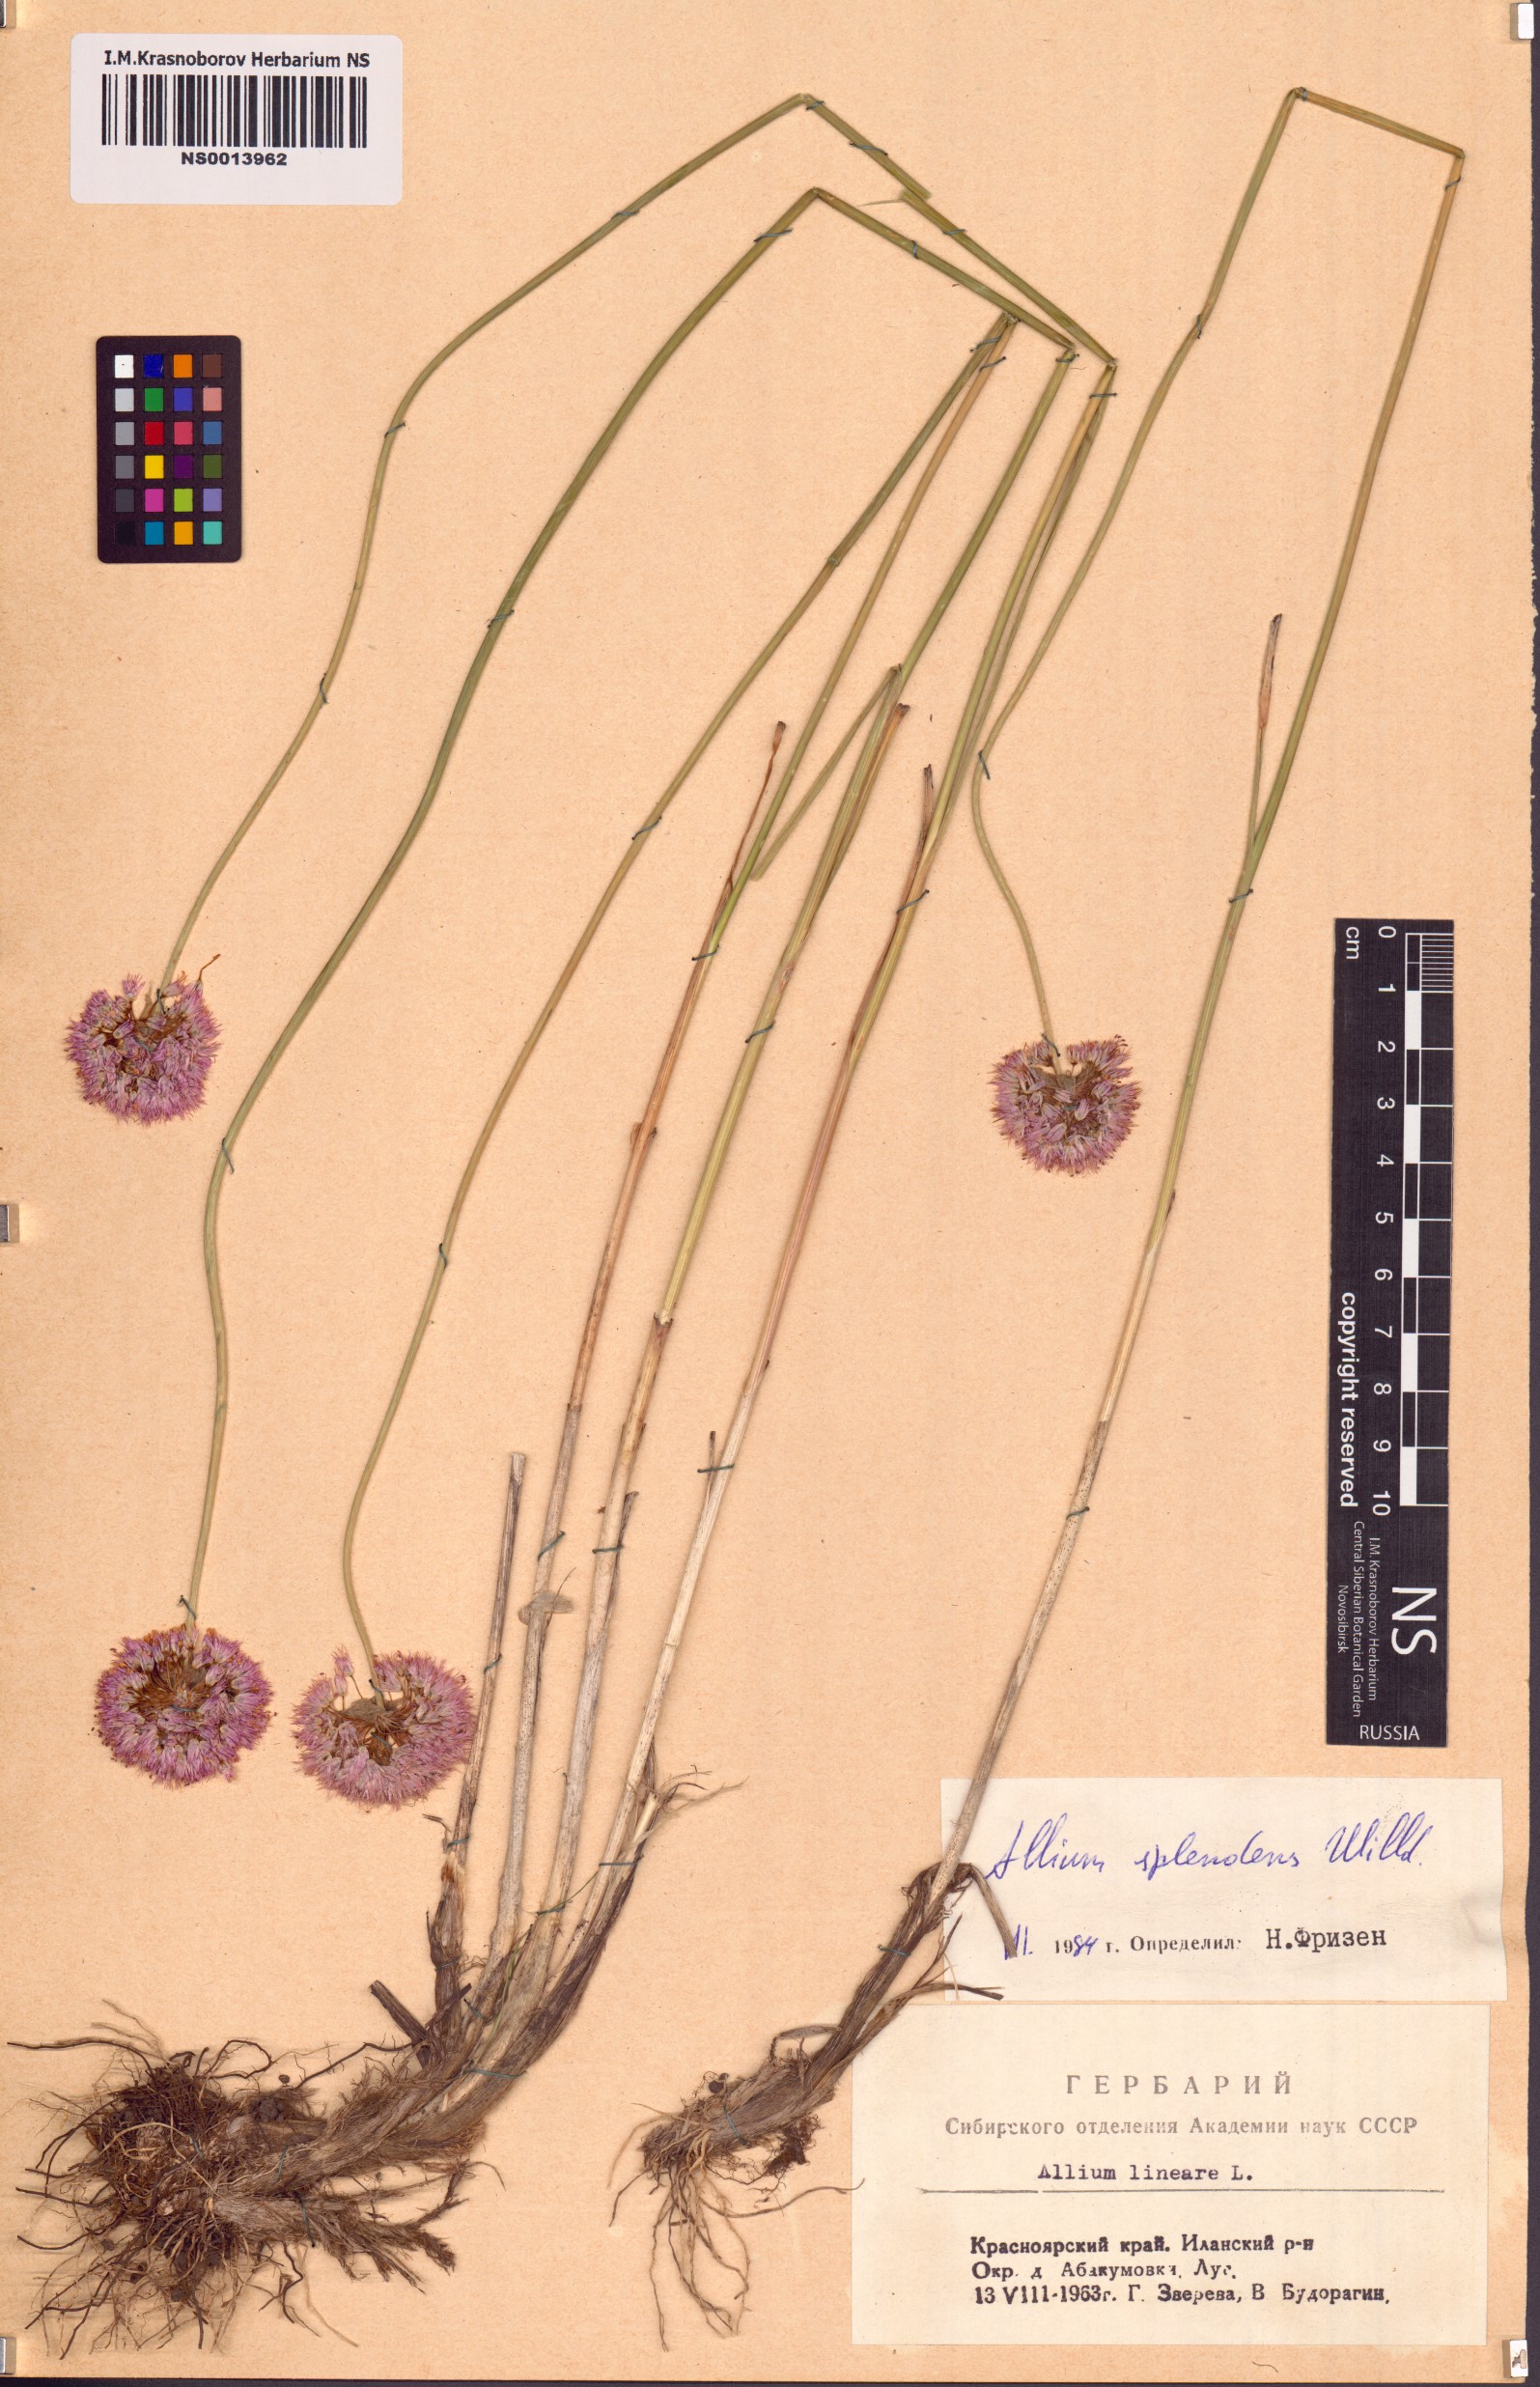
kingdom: Plantae
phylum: Tracheophyta
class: Liliopsida
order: Asparagales
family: Amaryllidaceae
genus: Allium
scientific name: Allium splendens
